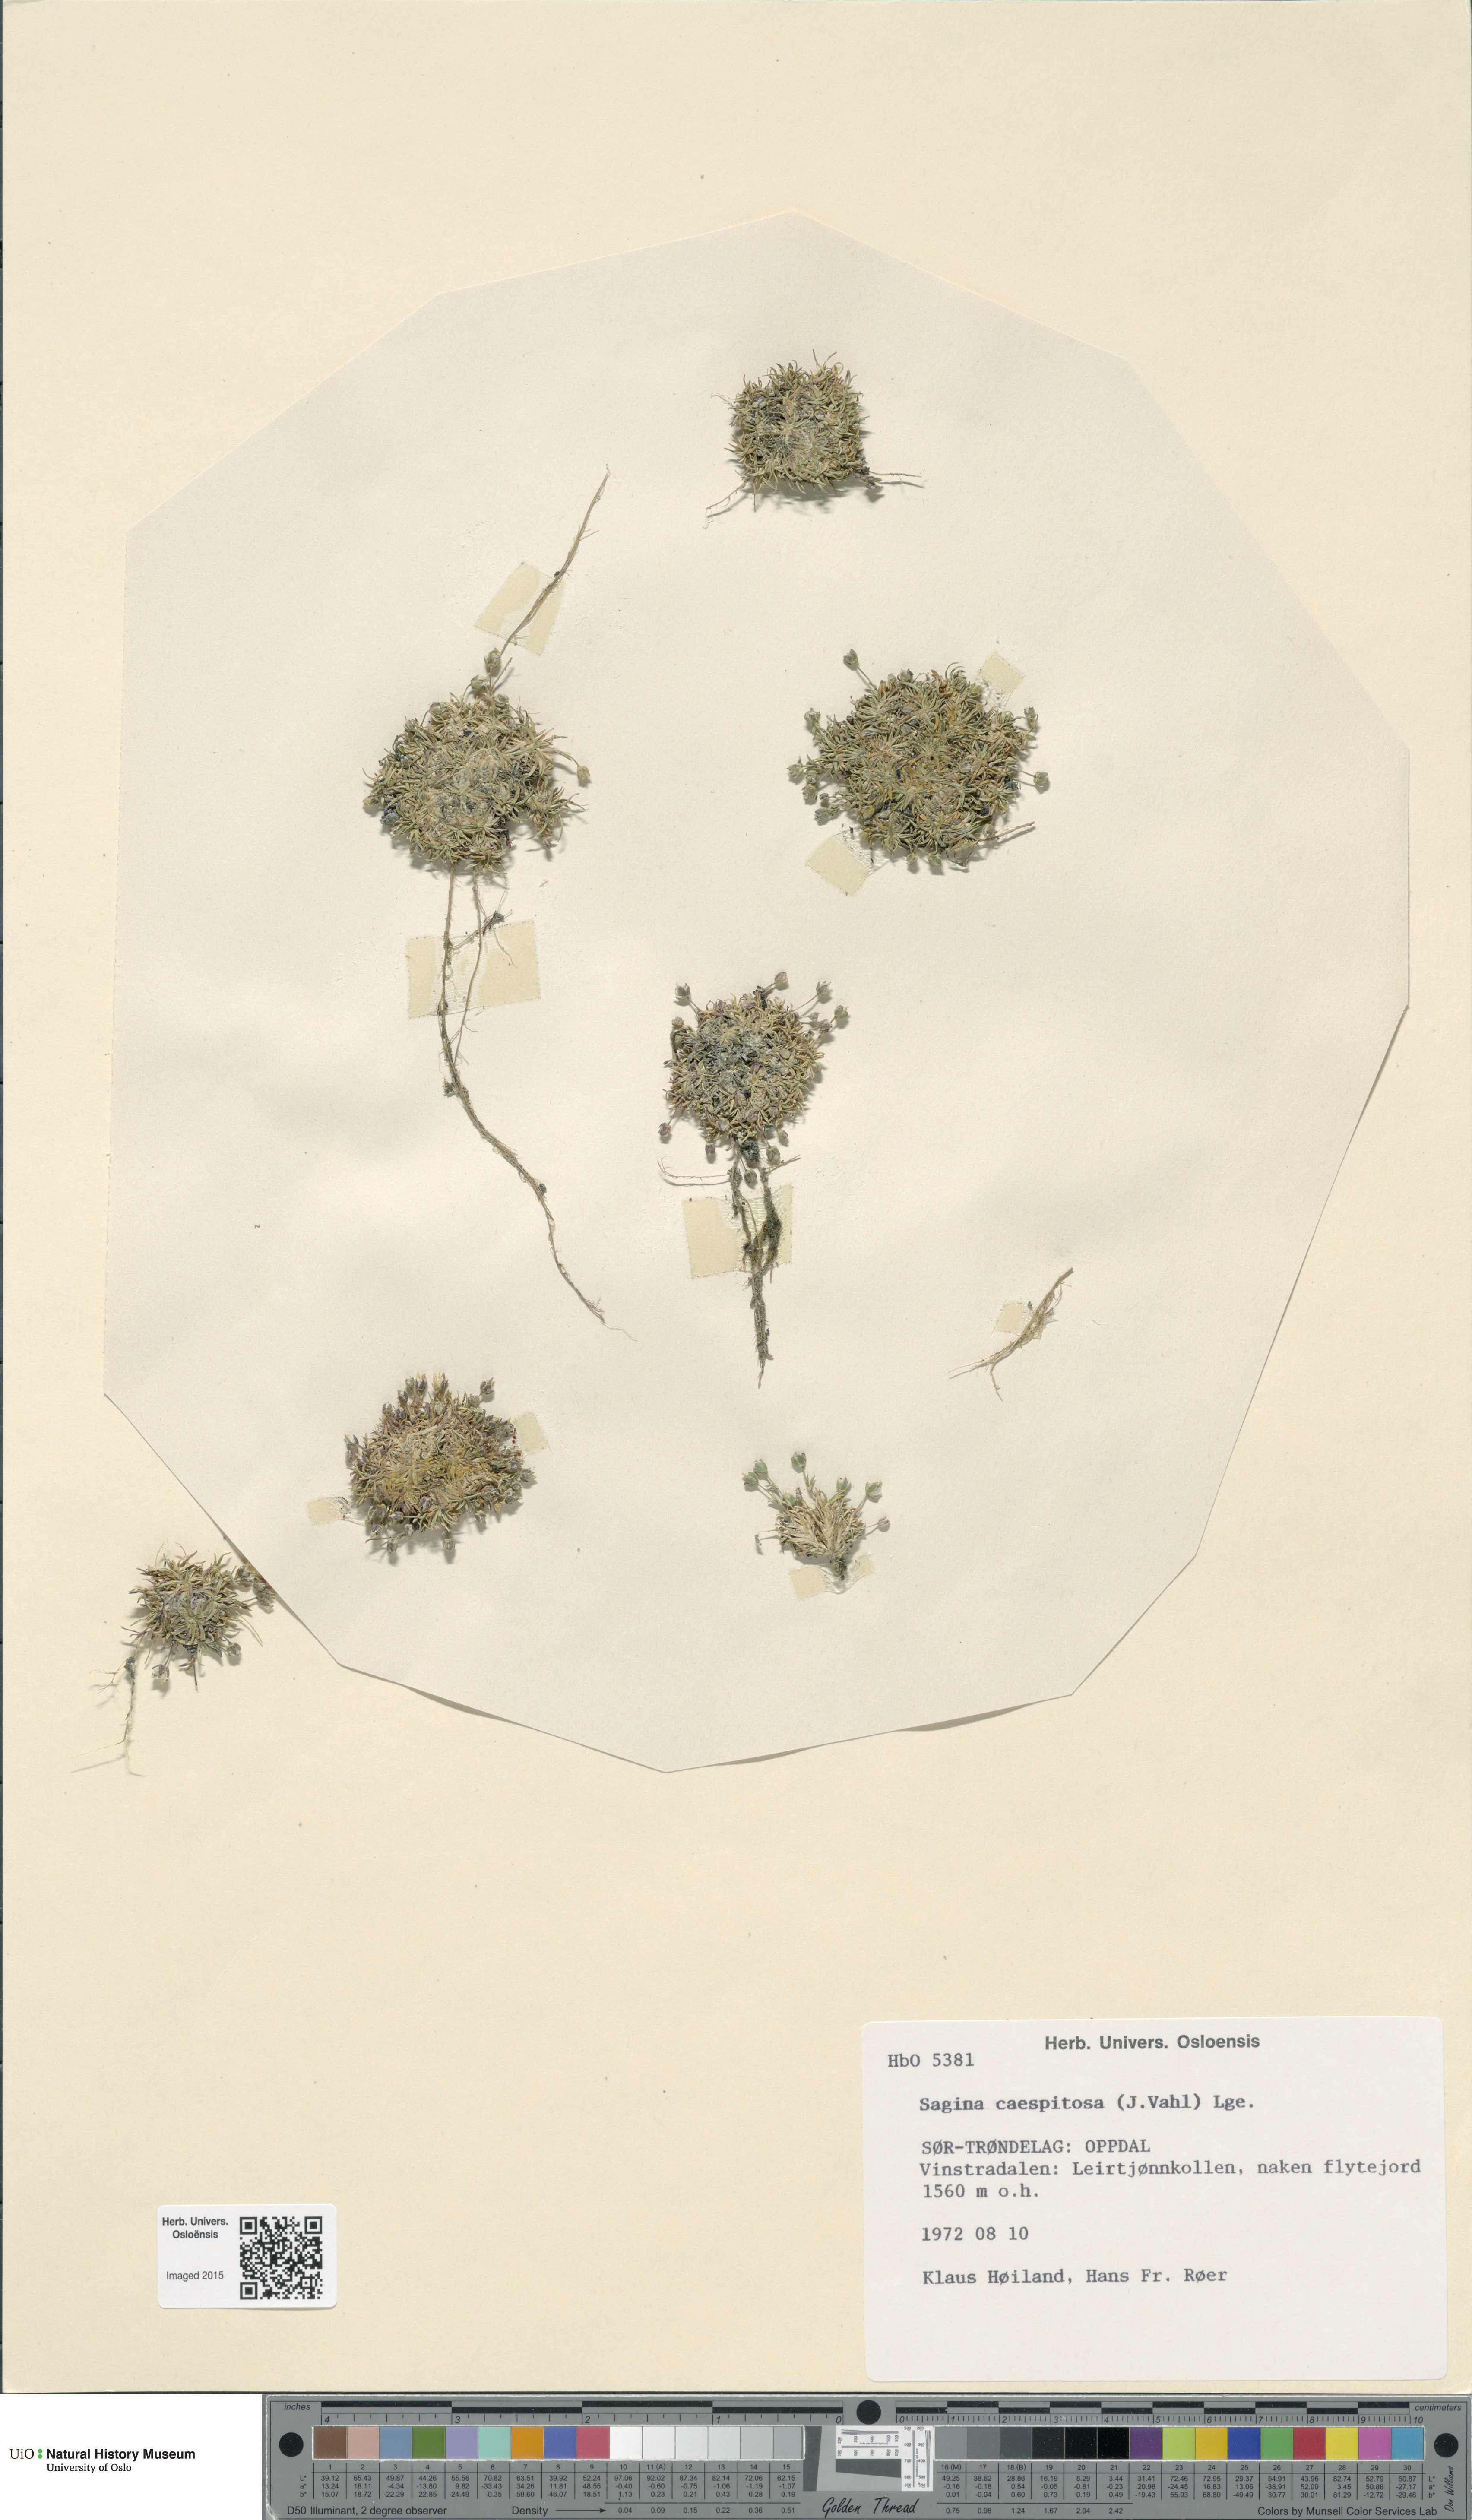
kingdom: Plantae
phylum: Tracheophyta
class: Magnoliopsida
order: Caryophyllales
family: Caryophyllaceae
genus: Sagina
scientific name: Sagina caespitosa
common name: Tufted pearlwort
